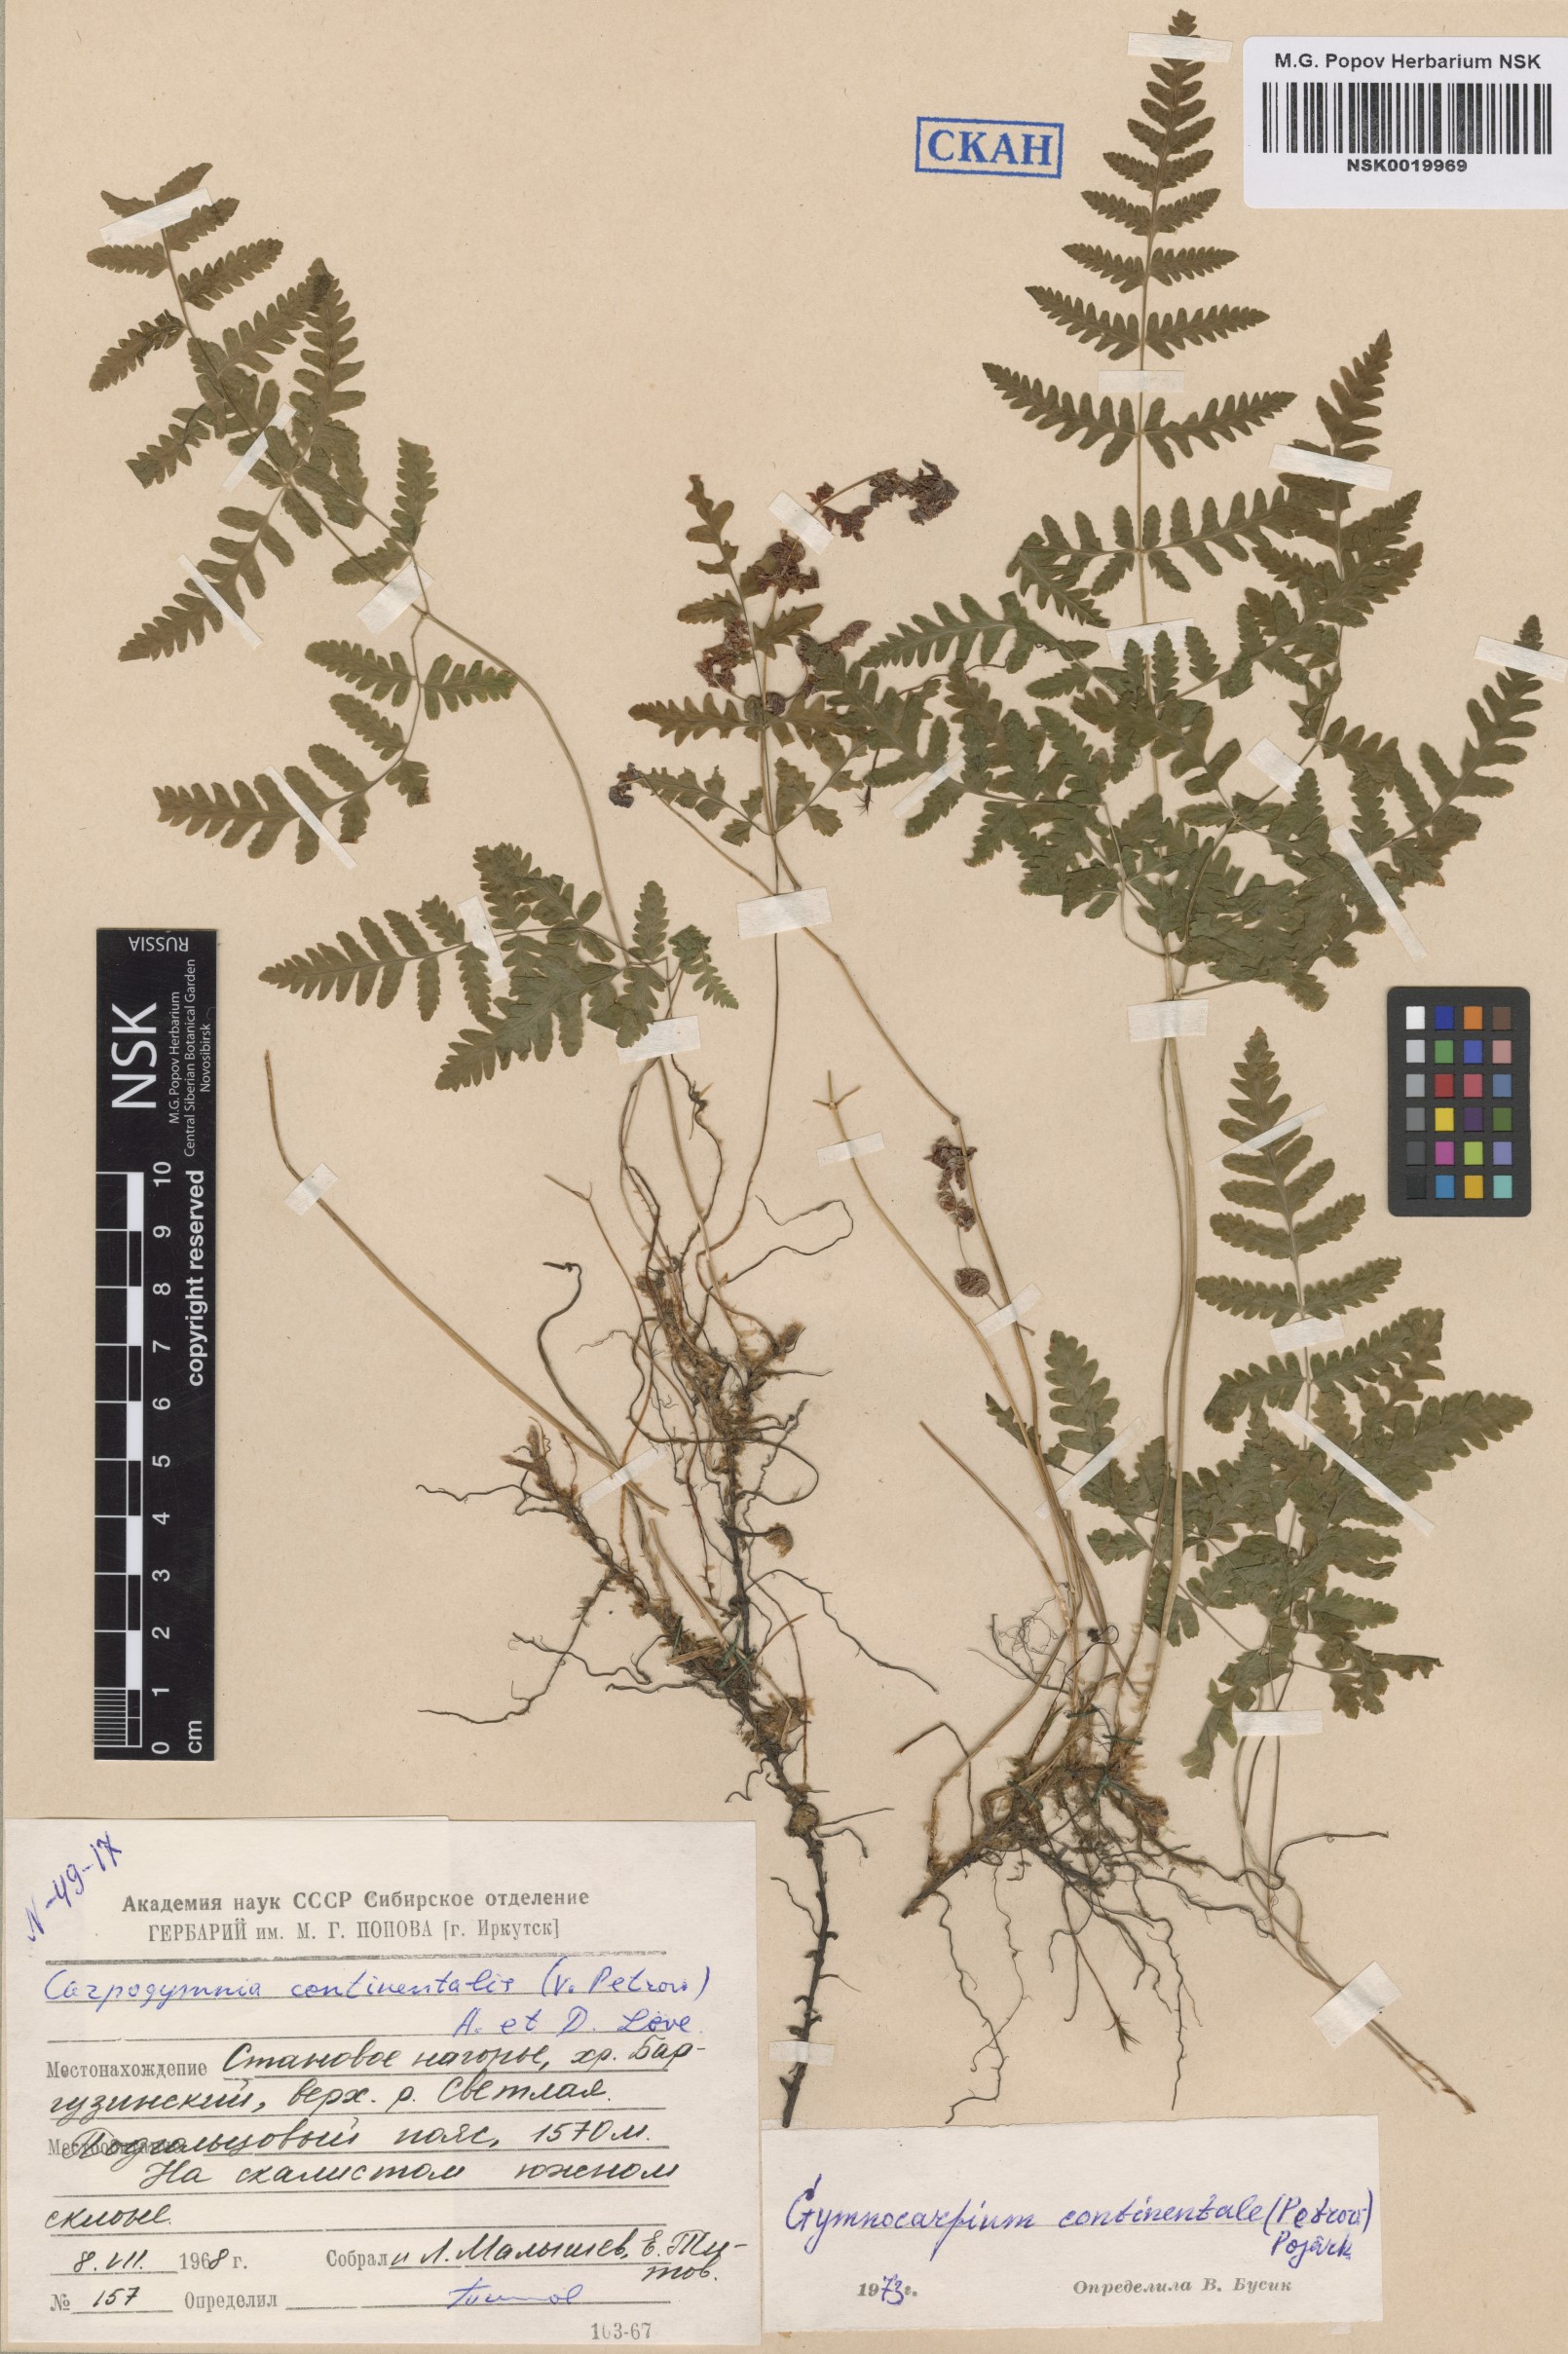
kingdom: Plantae
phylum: Tracheophyta
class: Polypodiopsida
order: Polypodiales
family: Cystopteridaceae
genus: Gymnocarpium
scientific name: Gymnocarpium continentale
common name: Asian oak fern
